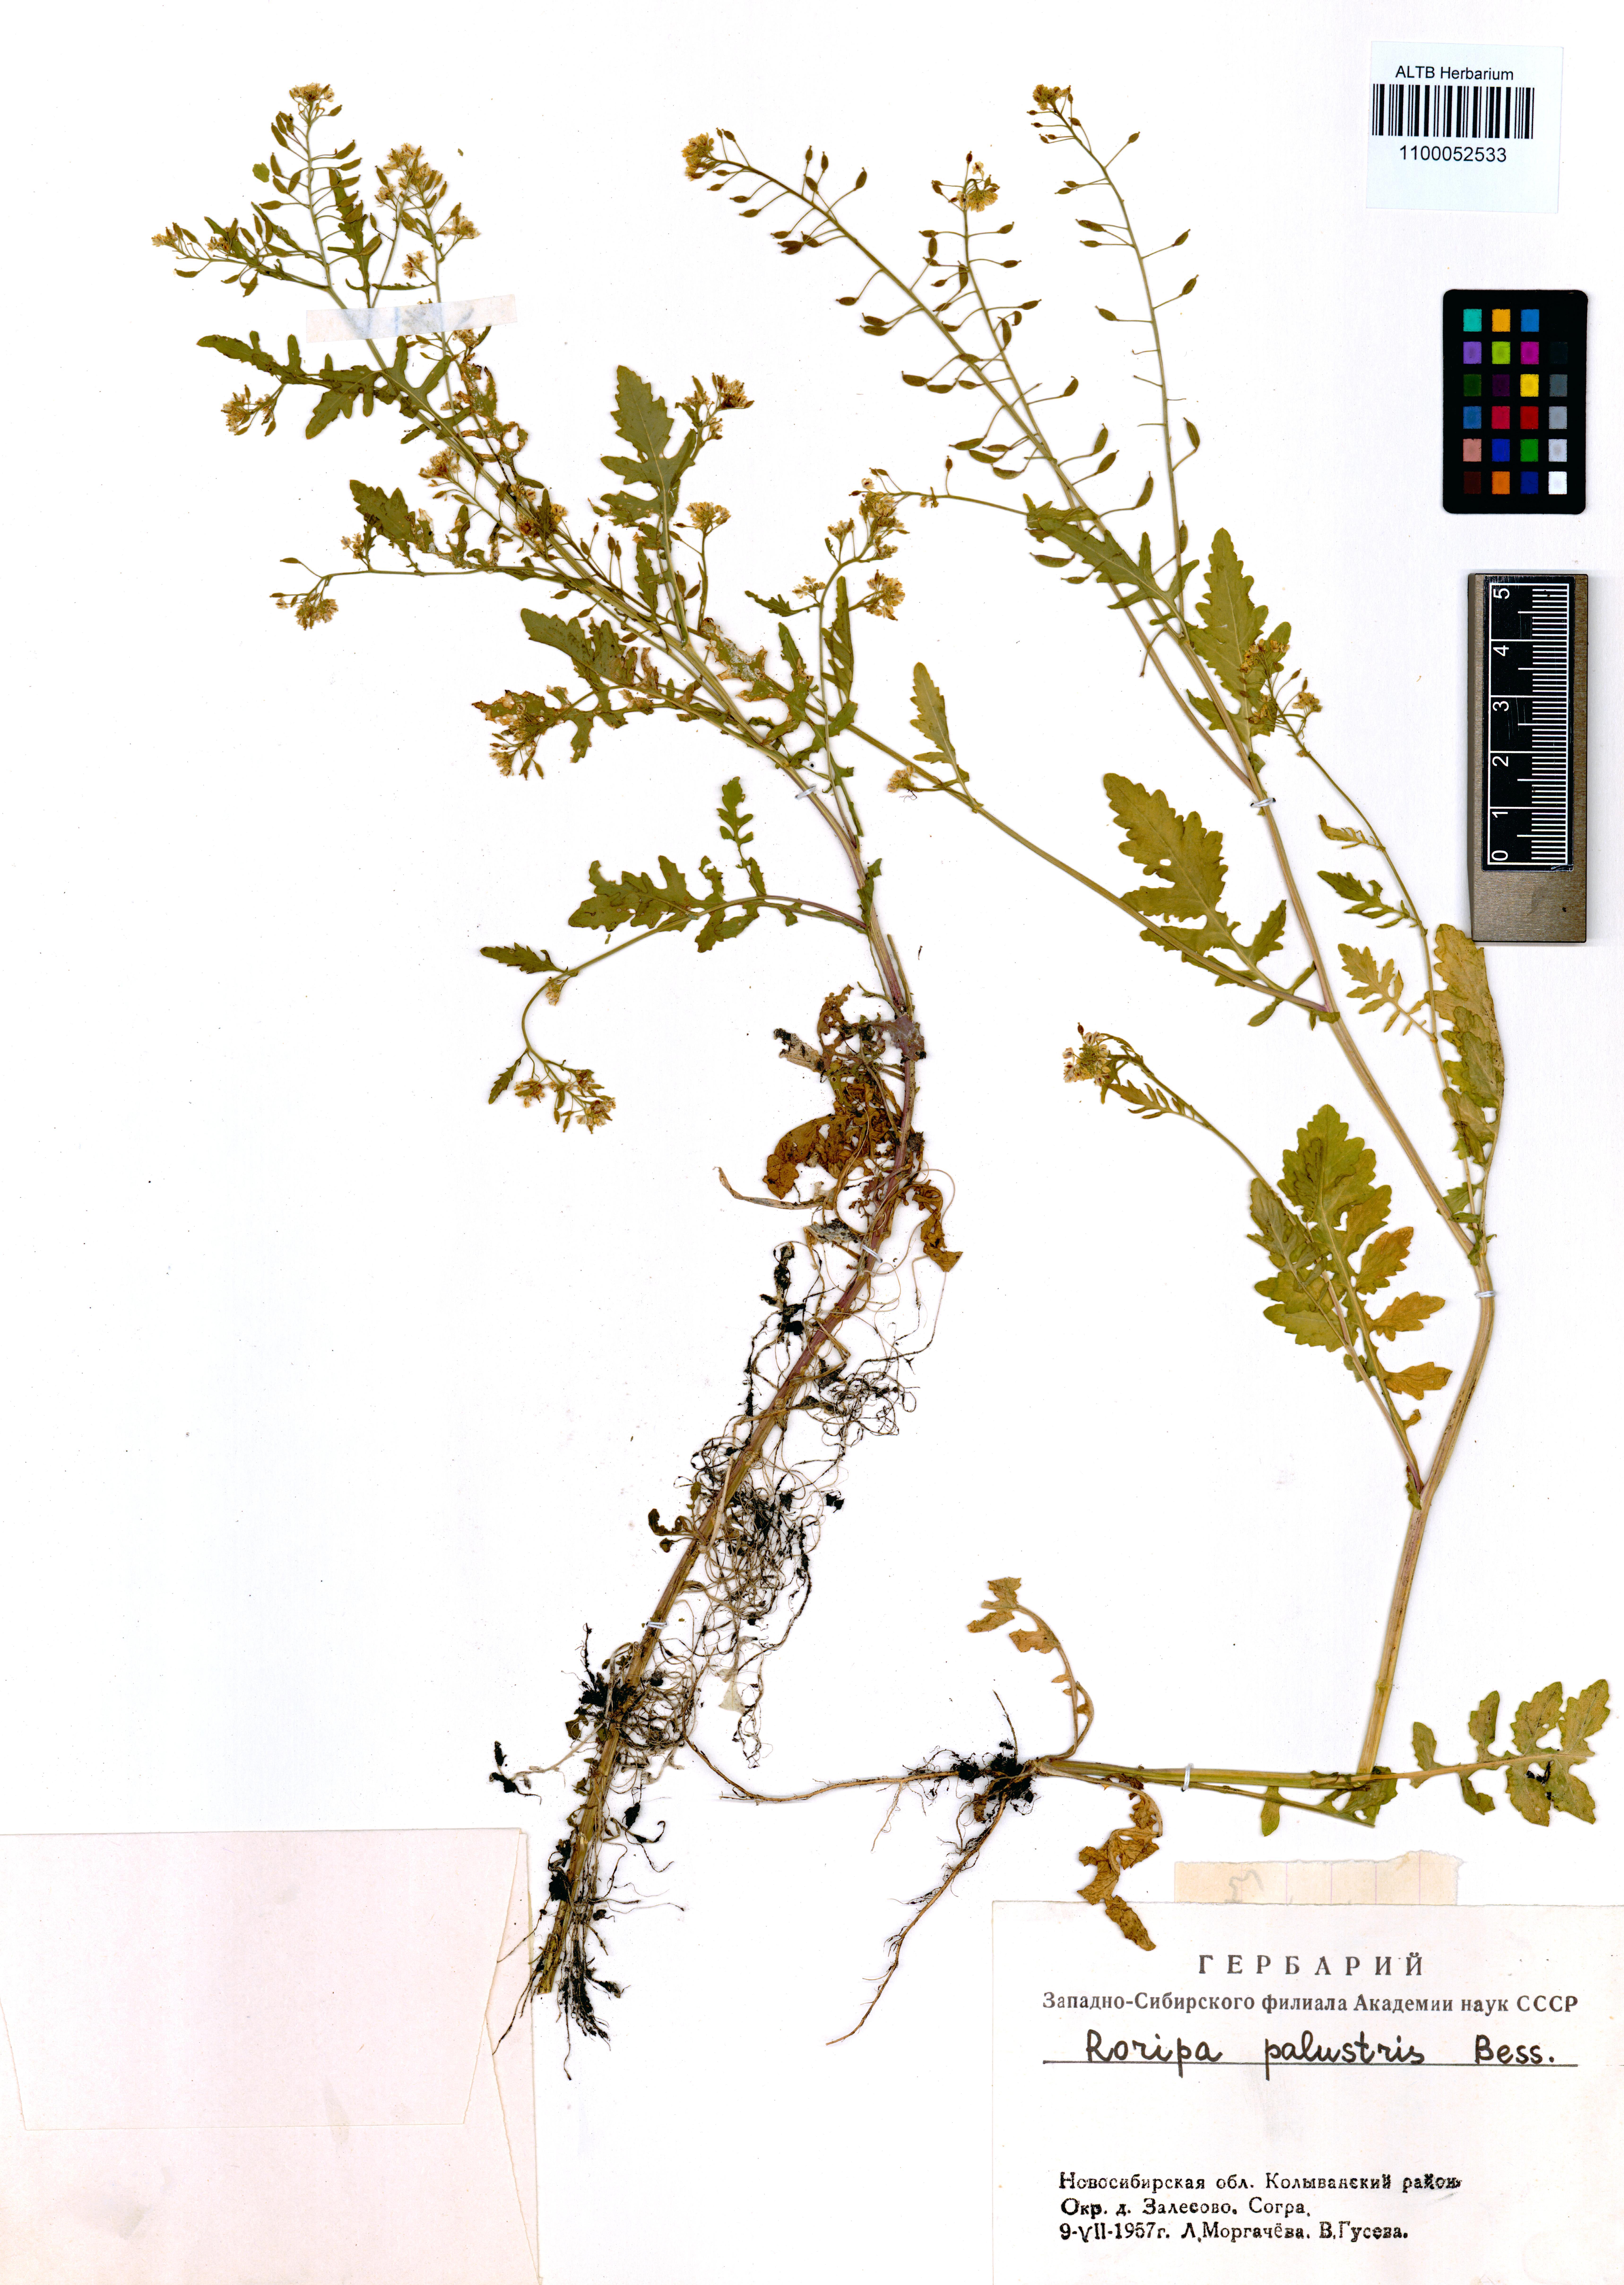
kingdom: Plantae
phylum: Tracheophyta
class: Magnoliopsida
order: Brassicales
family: Brassicaceae
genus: Rorippa
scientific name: Rorippa palustris
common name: Marsh yellow-cress
